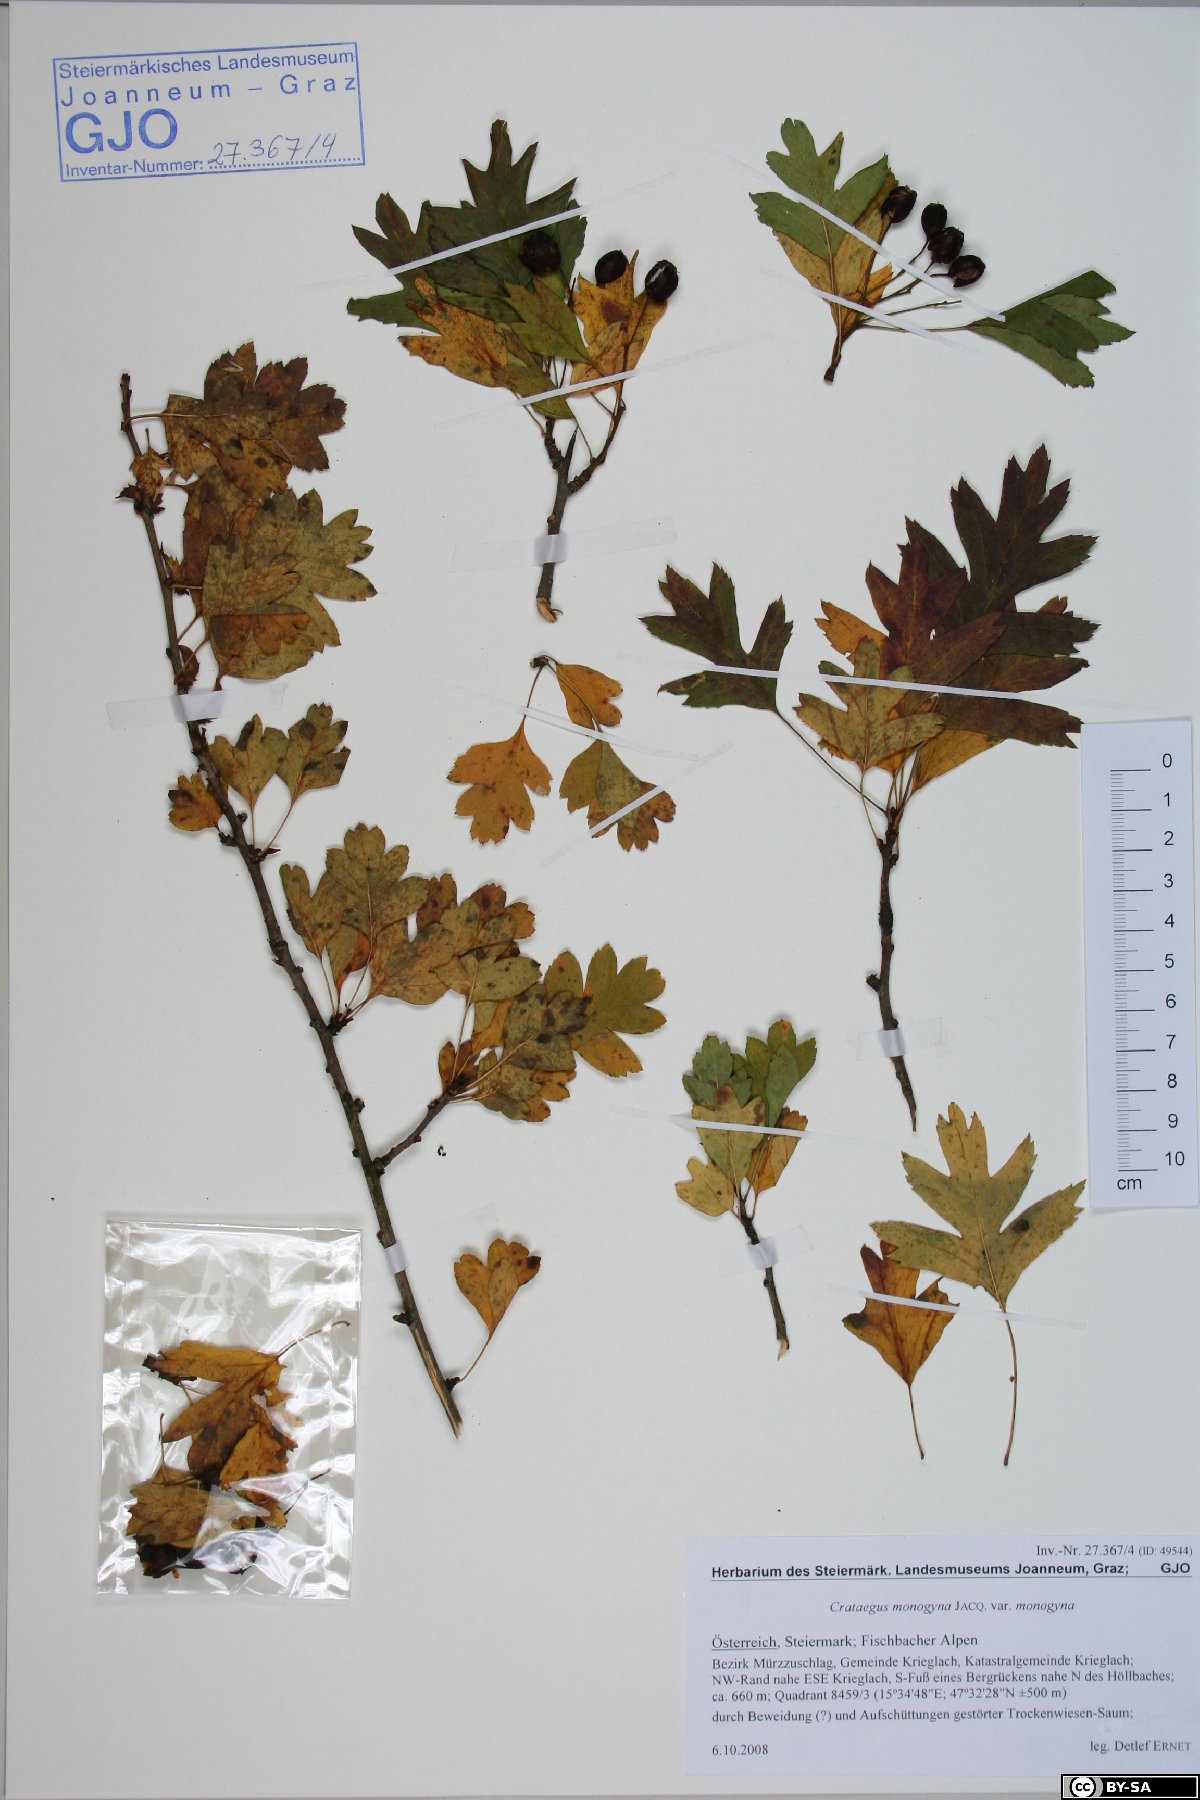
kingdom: Plantae
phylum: Tracheophyta
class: Magnoliopsida
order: Rosales
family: Rosaceae
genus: Crataegus
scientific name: Crataegus monogyna
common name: Hawthorn
